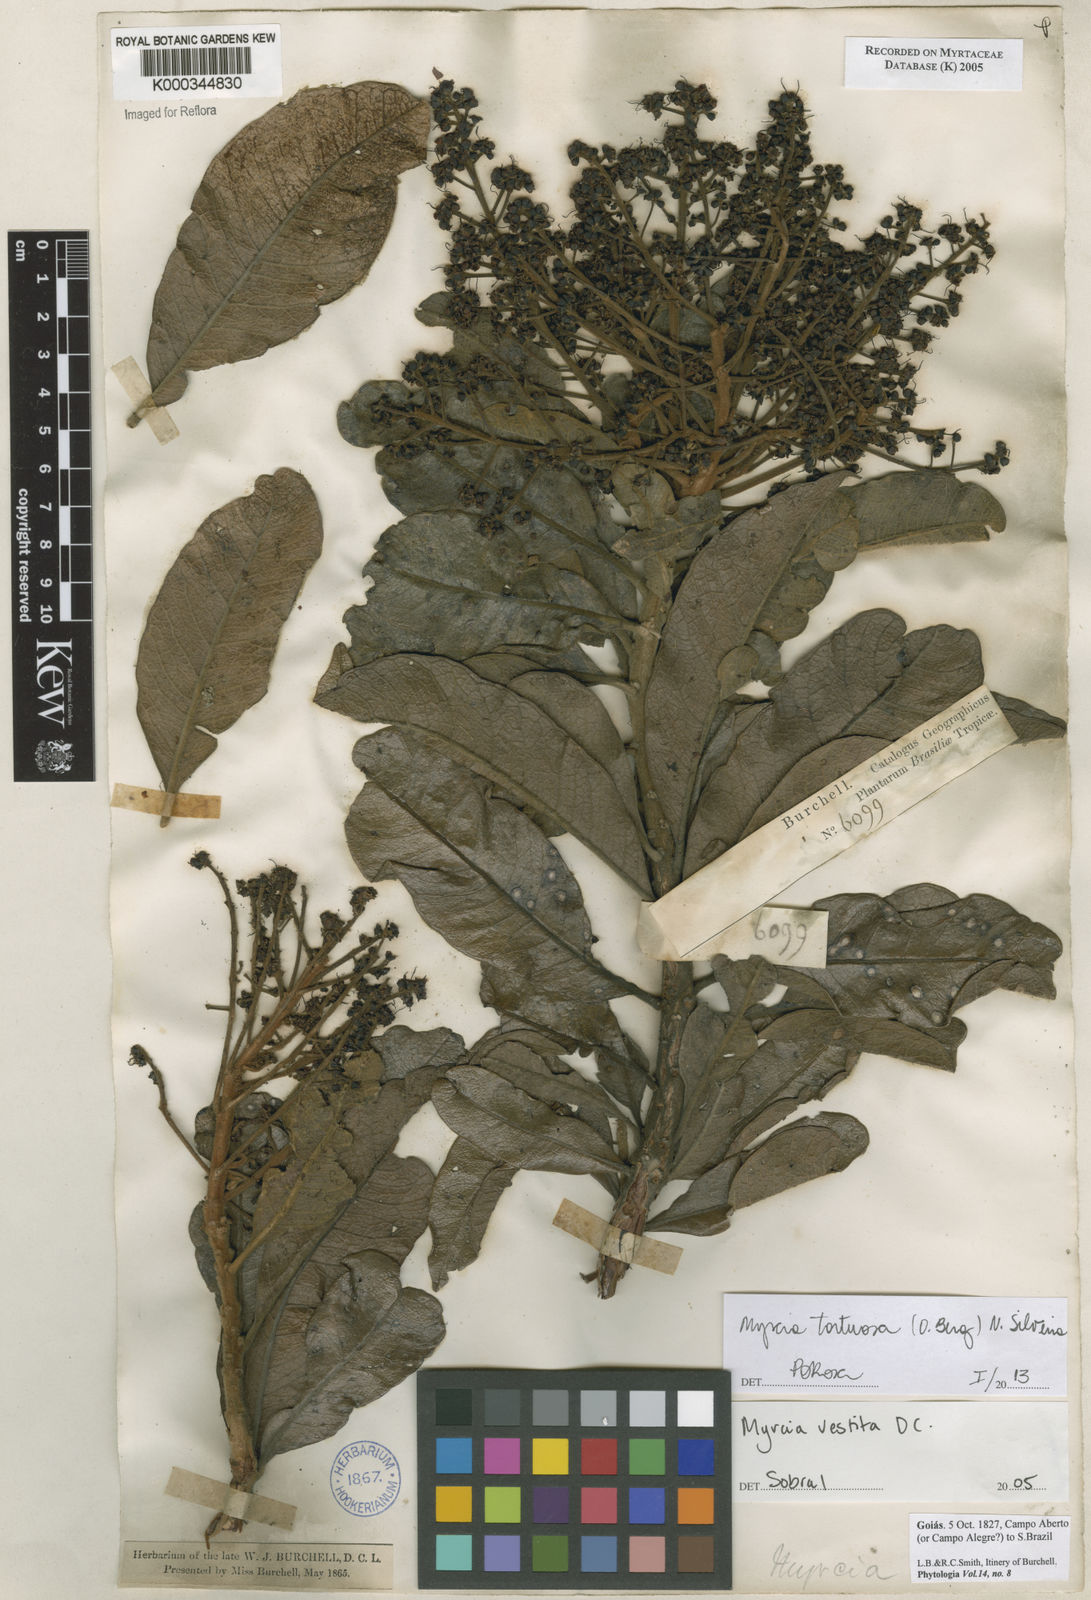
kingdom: Plantae
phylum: Tracheophyta
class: Magnoliopsida
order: Myrtales
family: Myrtaceae
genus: Myrcia
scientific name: Myrcia vestita
